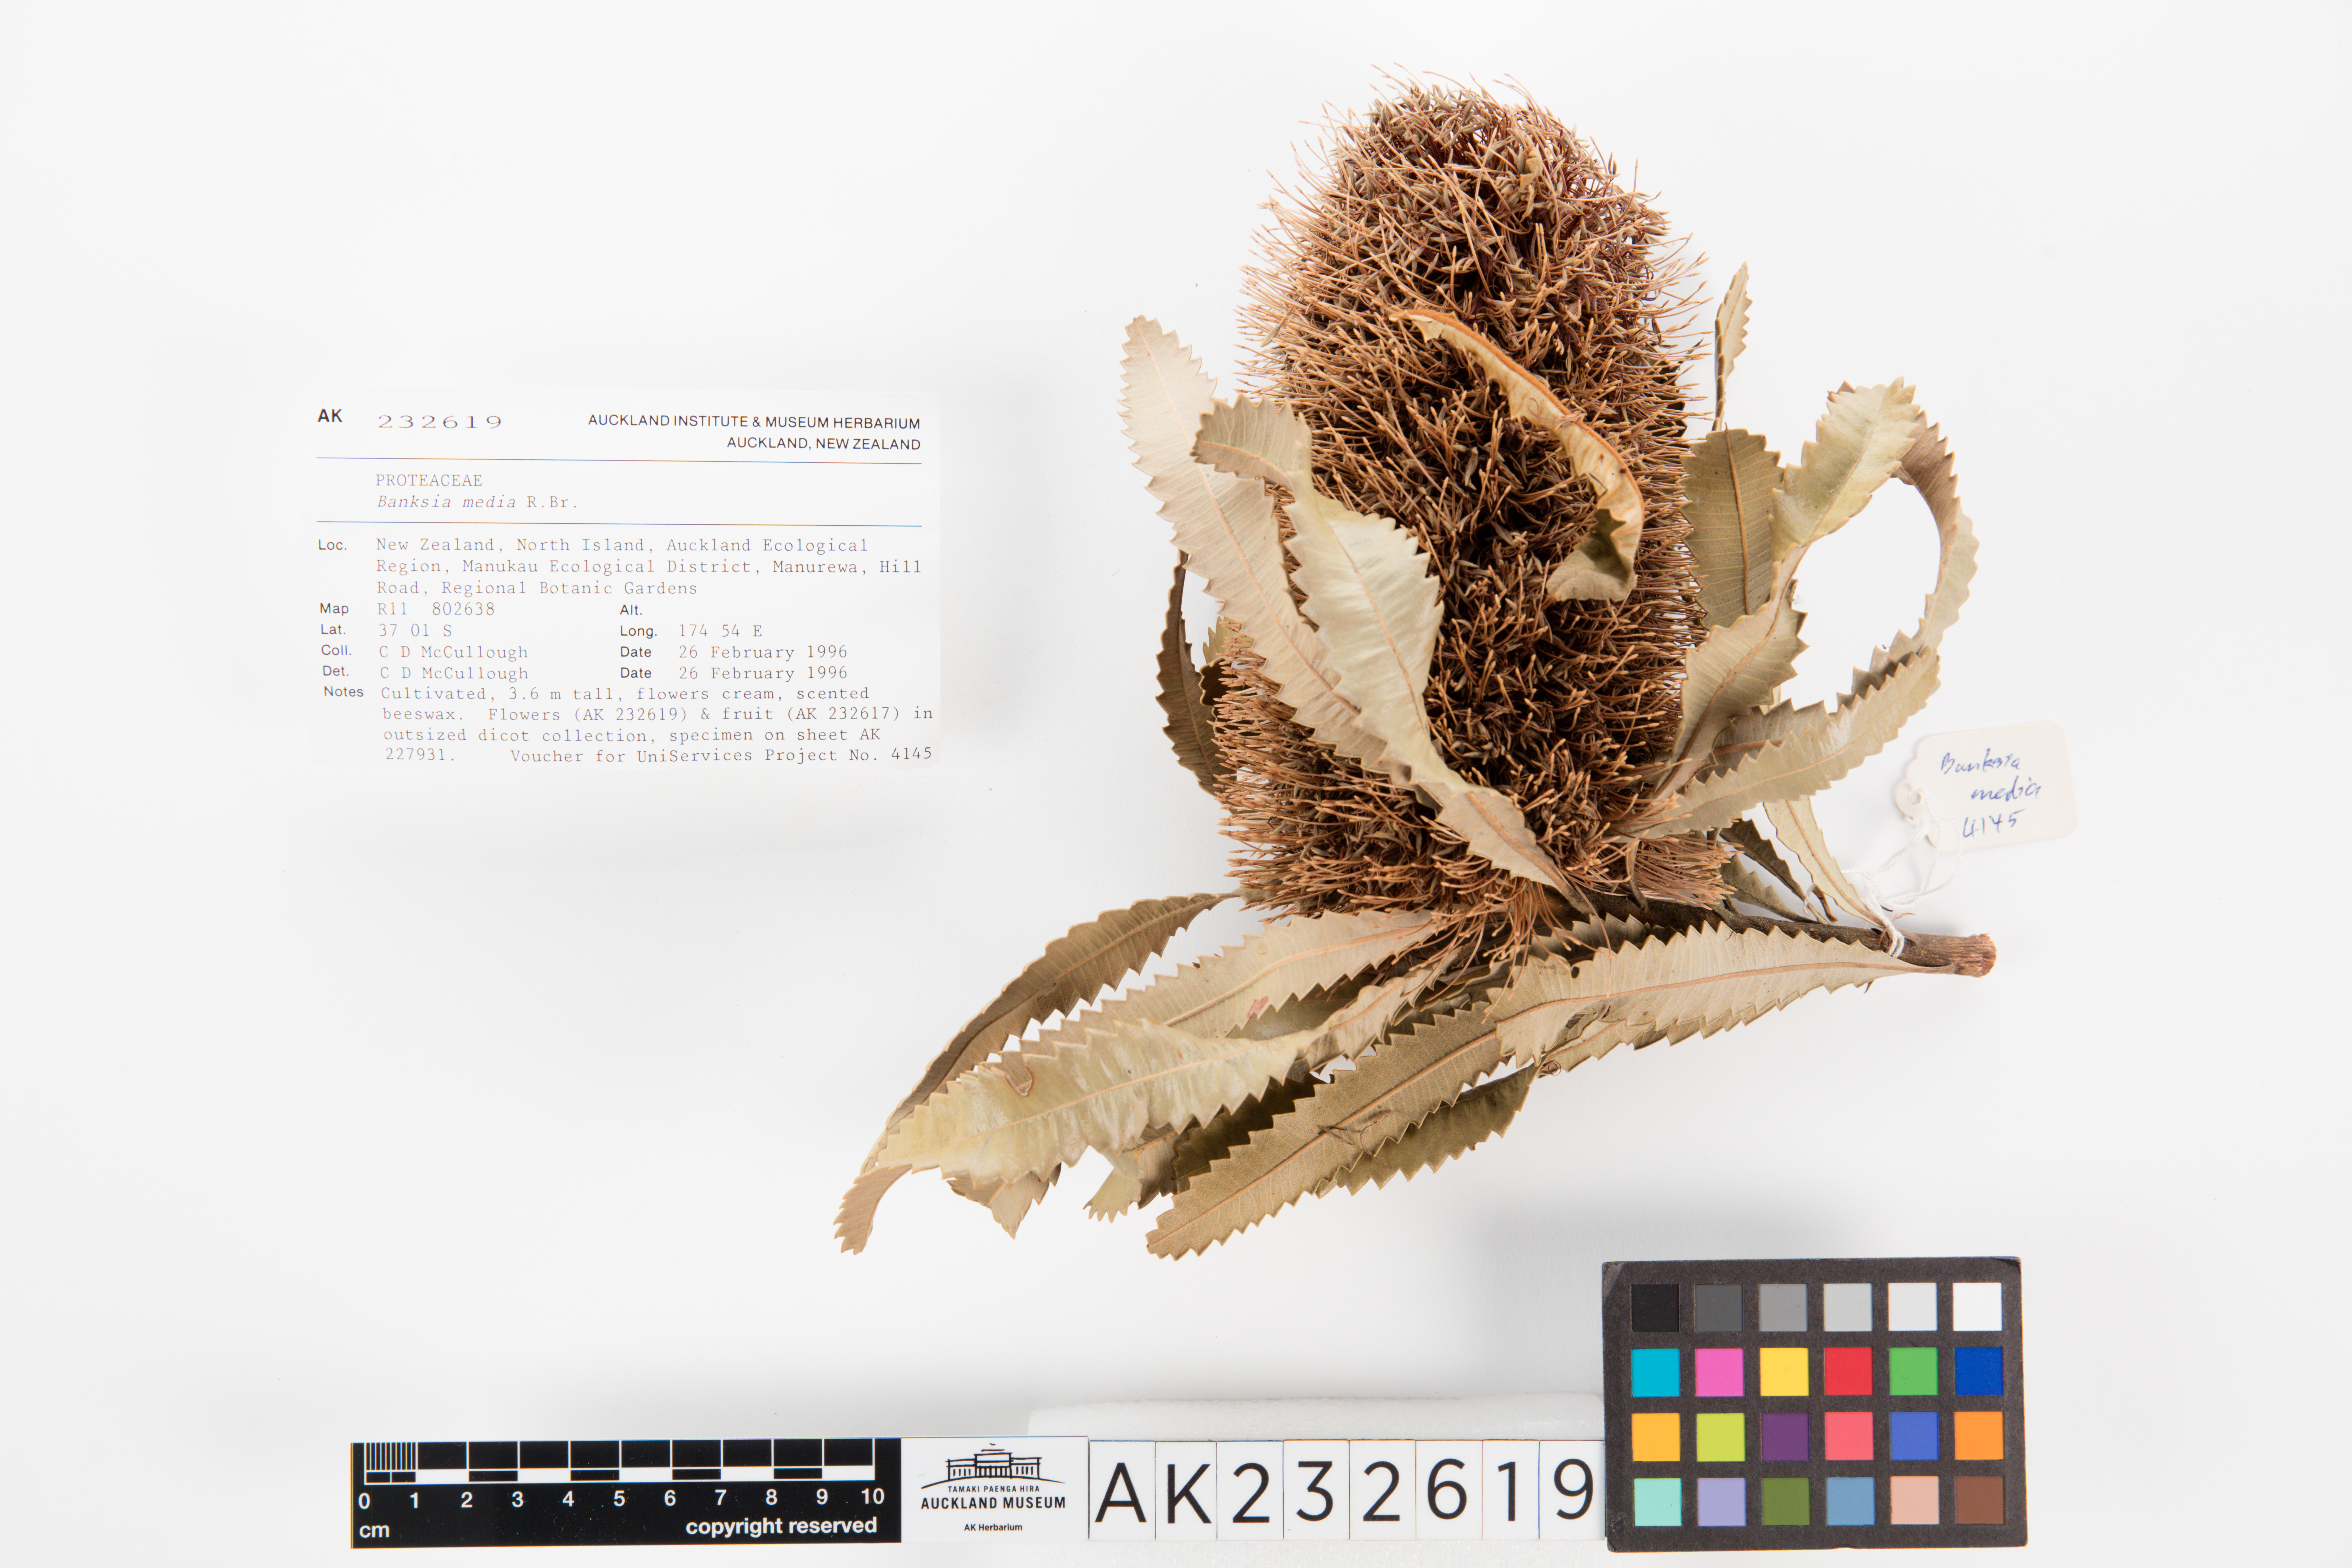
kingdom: Plantae
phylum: Tracheophyta
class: Magnoliopsida
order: Proteales
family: Proteaceae
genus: Banksia
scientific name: Banksia media
